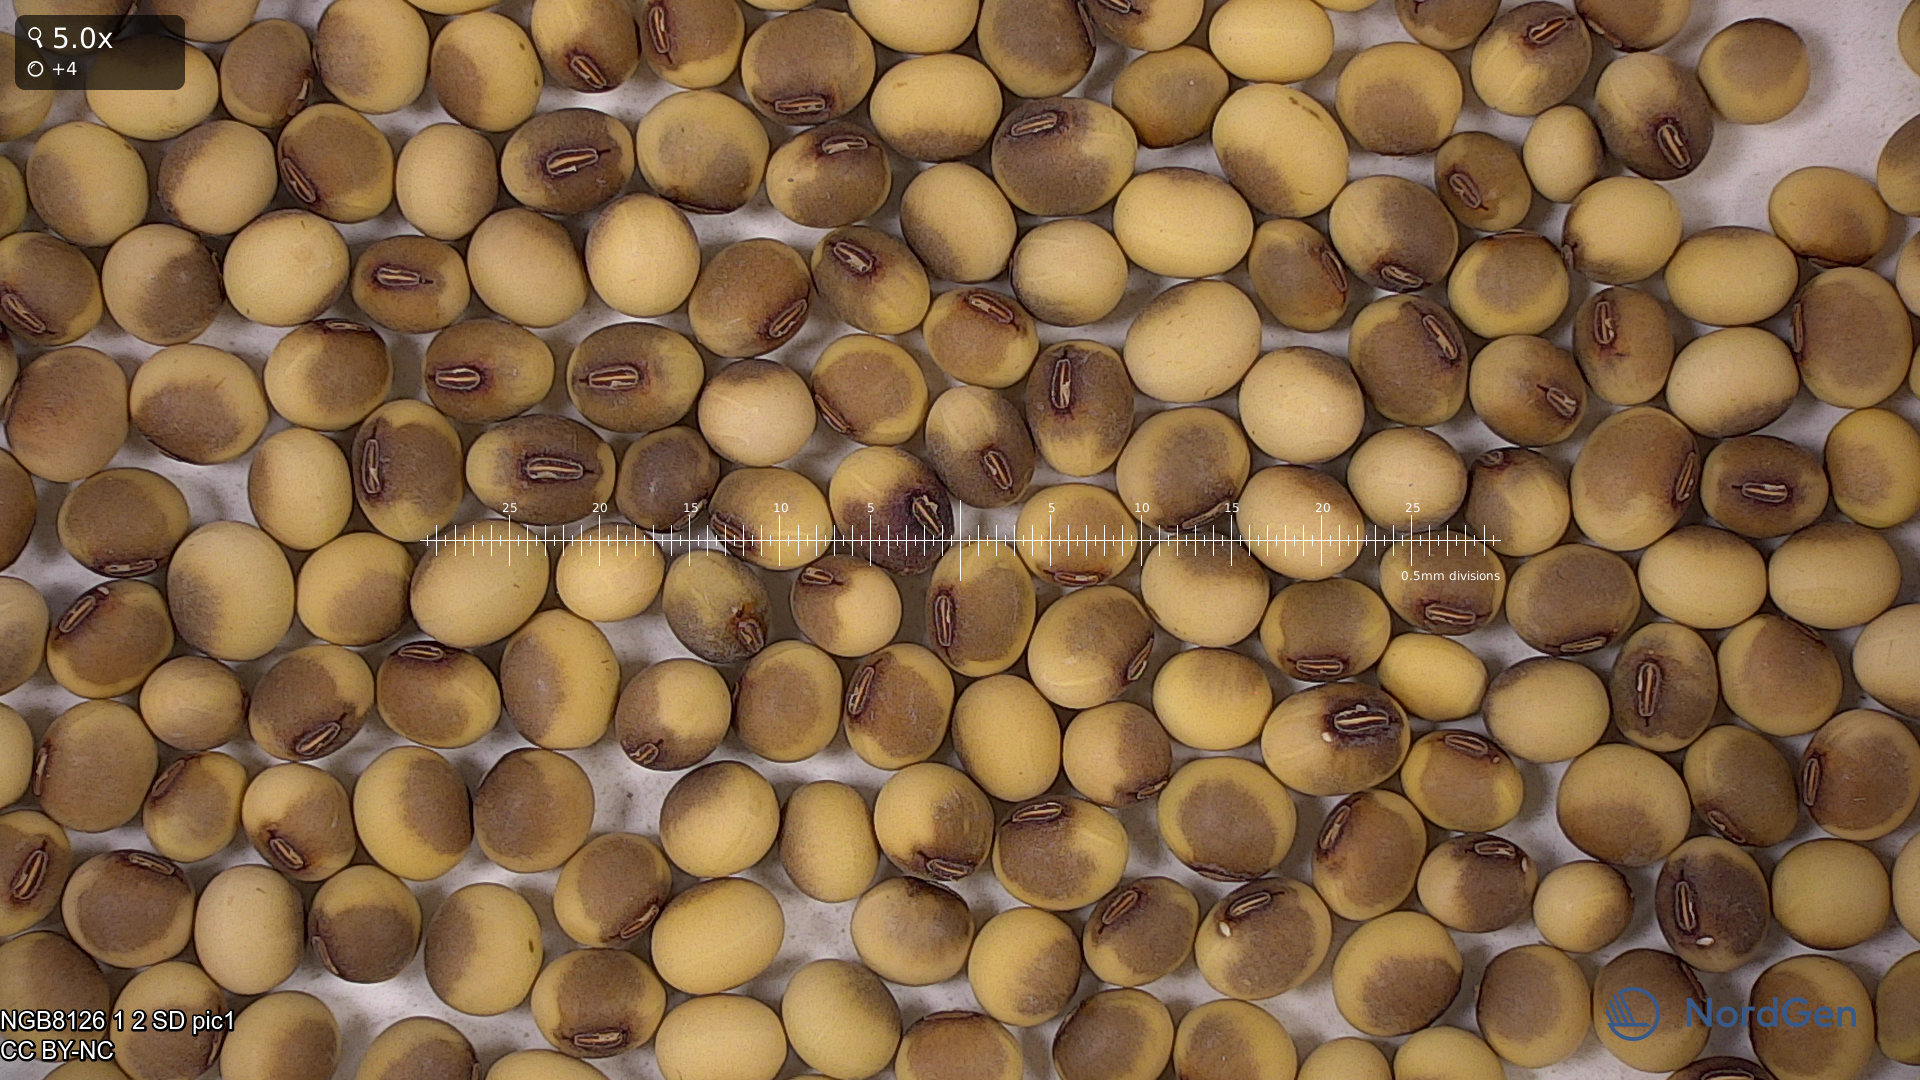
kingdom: Plantae
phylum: Tracheophyta
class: Magnoliopsida
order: Fabales
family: Fabaceae
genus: Glycine
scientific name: Glycine max
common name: Soya-bean
